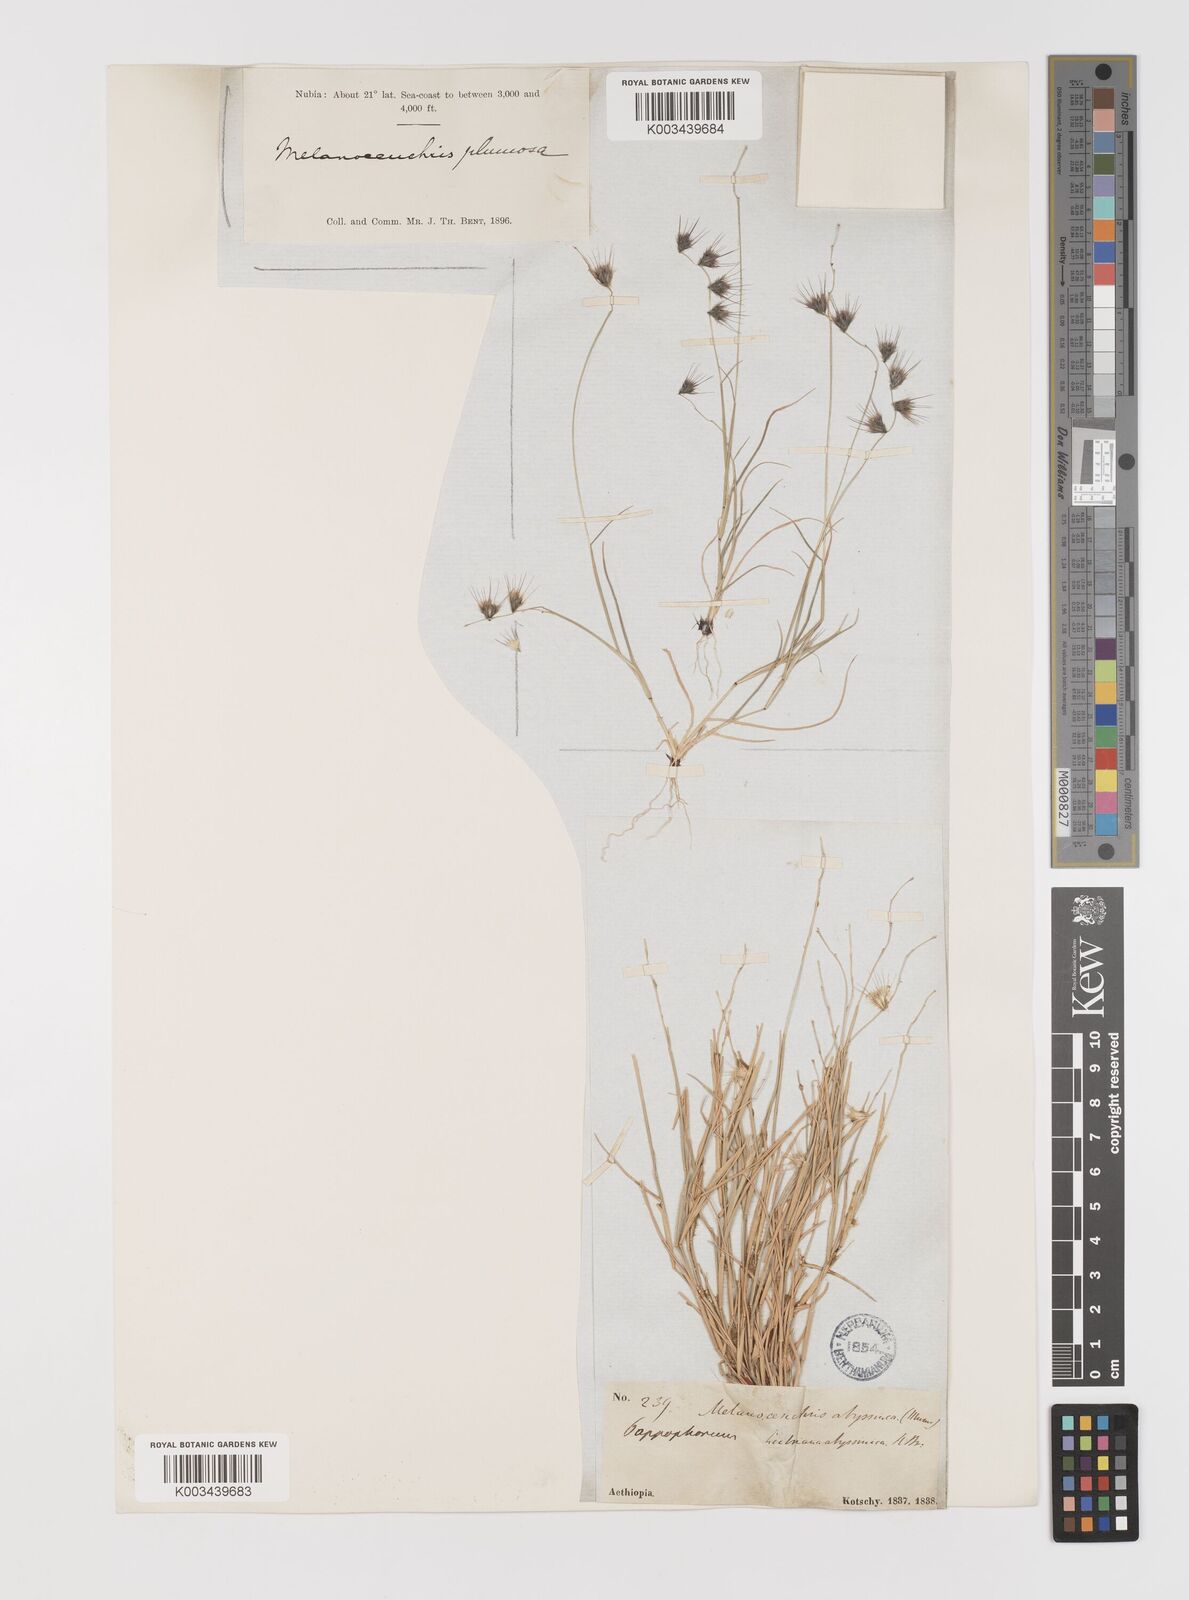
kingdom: Plantae
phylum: Tracheophyta
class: Liliopsida
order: Poales
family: Poaceae
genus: Melanocenchris
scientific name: Melanocenchris abyssinica
